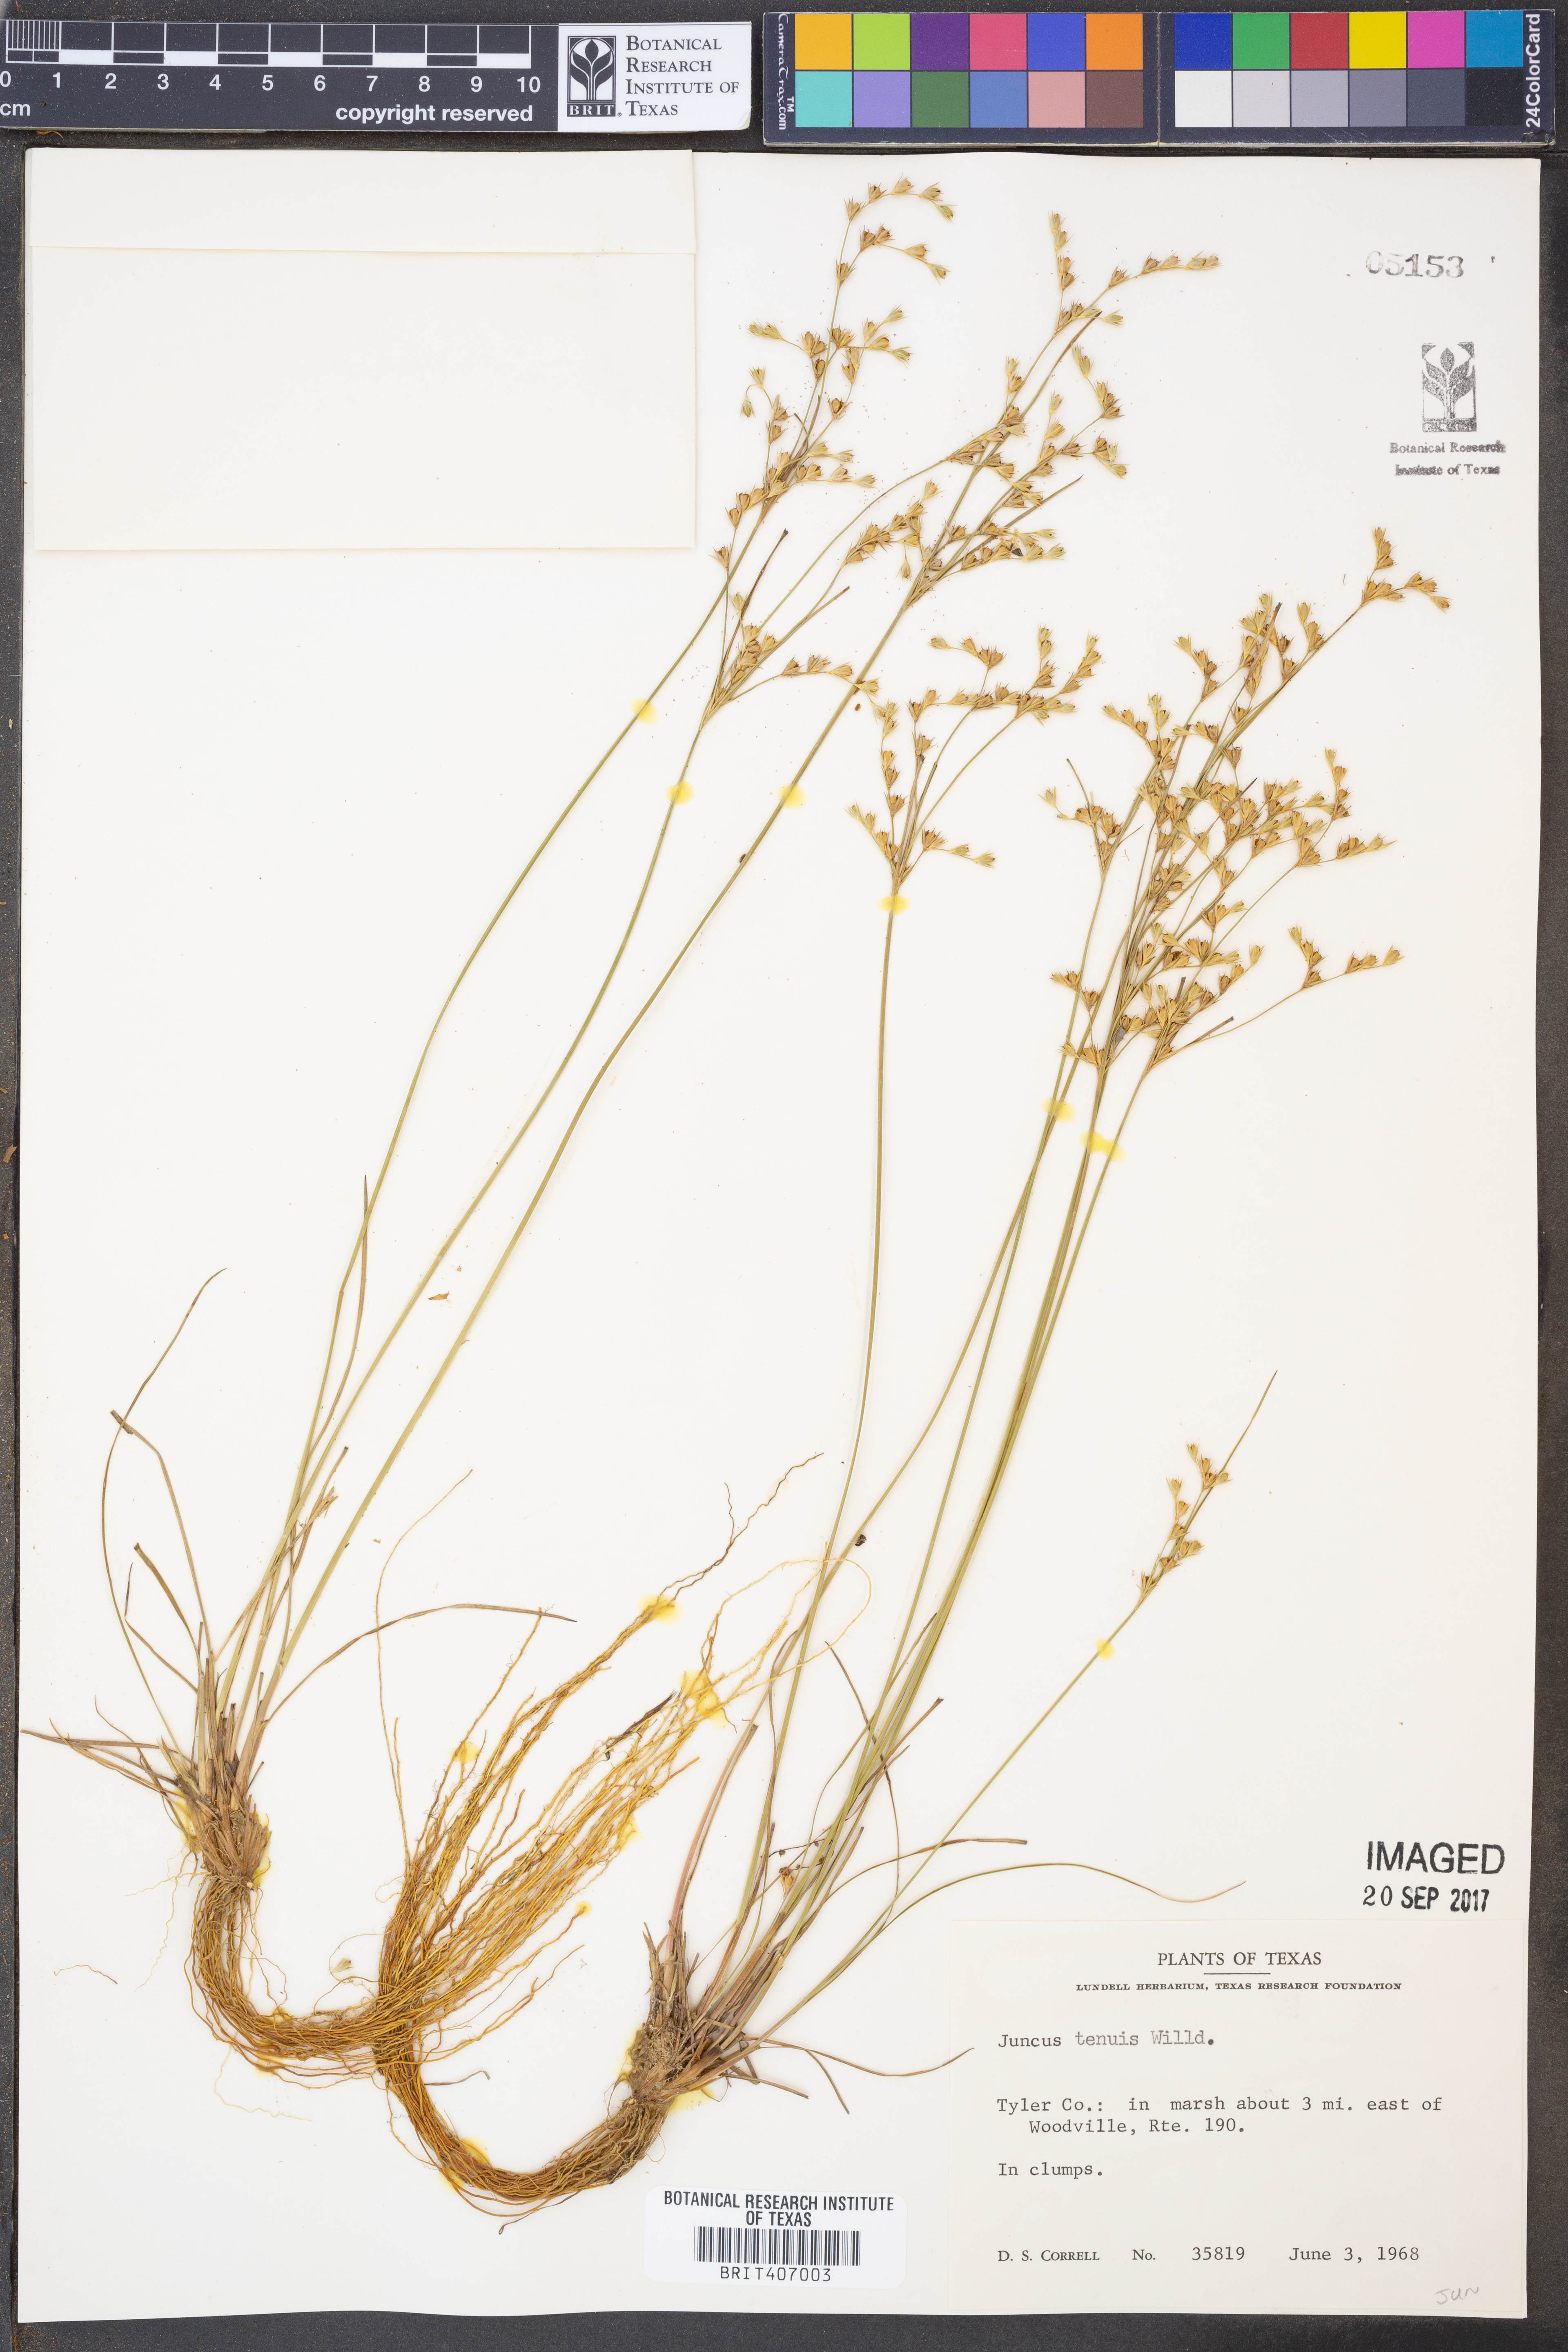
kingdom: Plantae
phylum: Tracheophyta
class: Liliopsida
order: Poales
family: Juncaceae
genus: Juncus
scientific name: Juncus tenuis
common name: Slender rush
